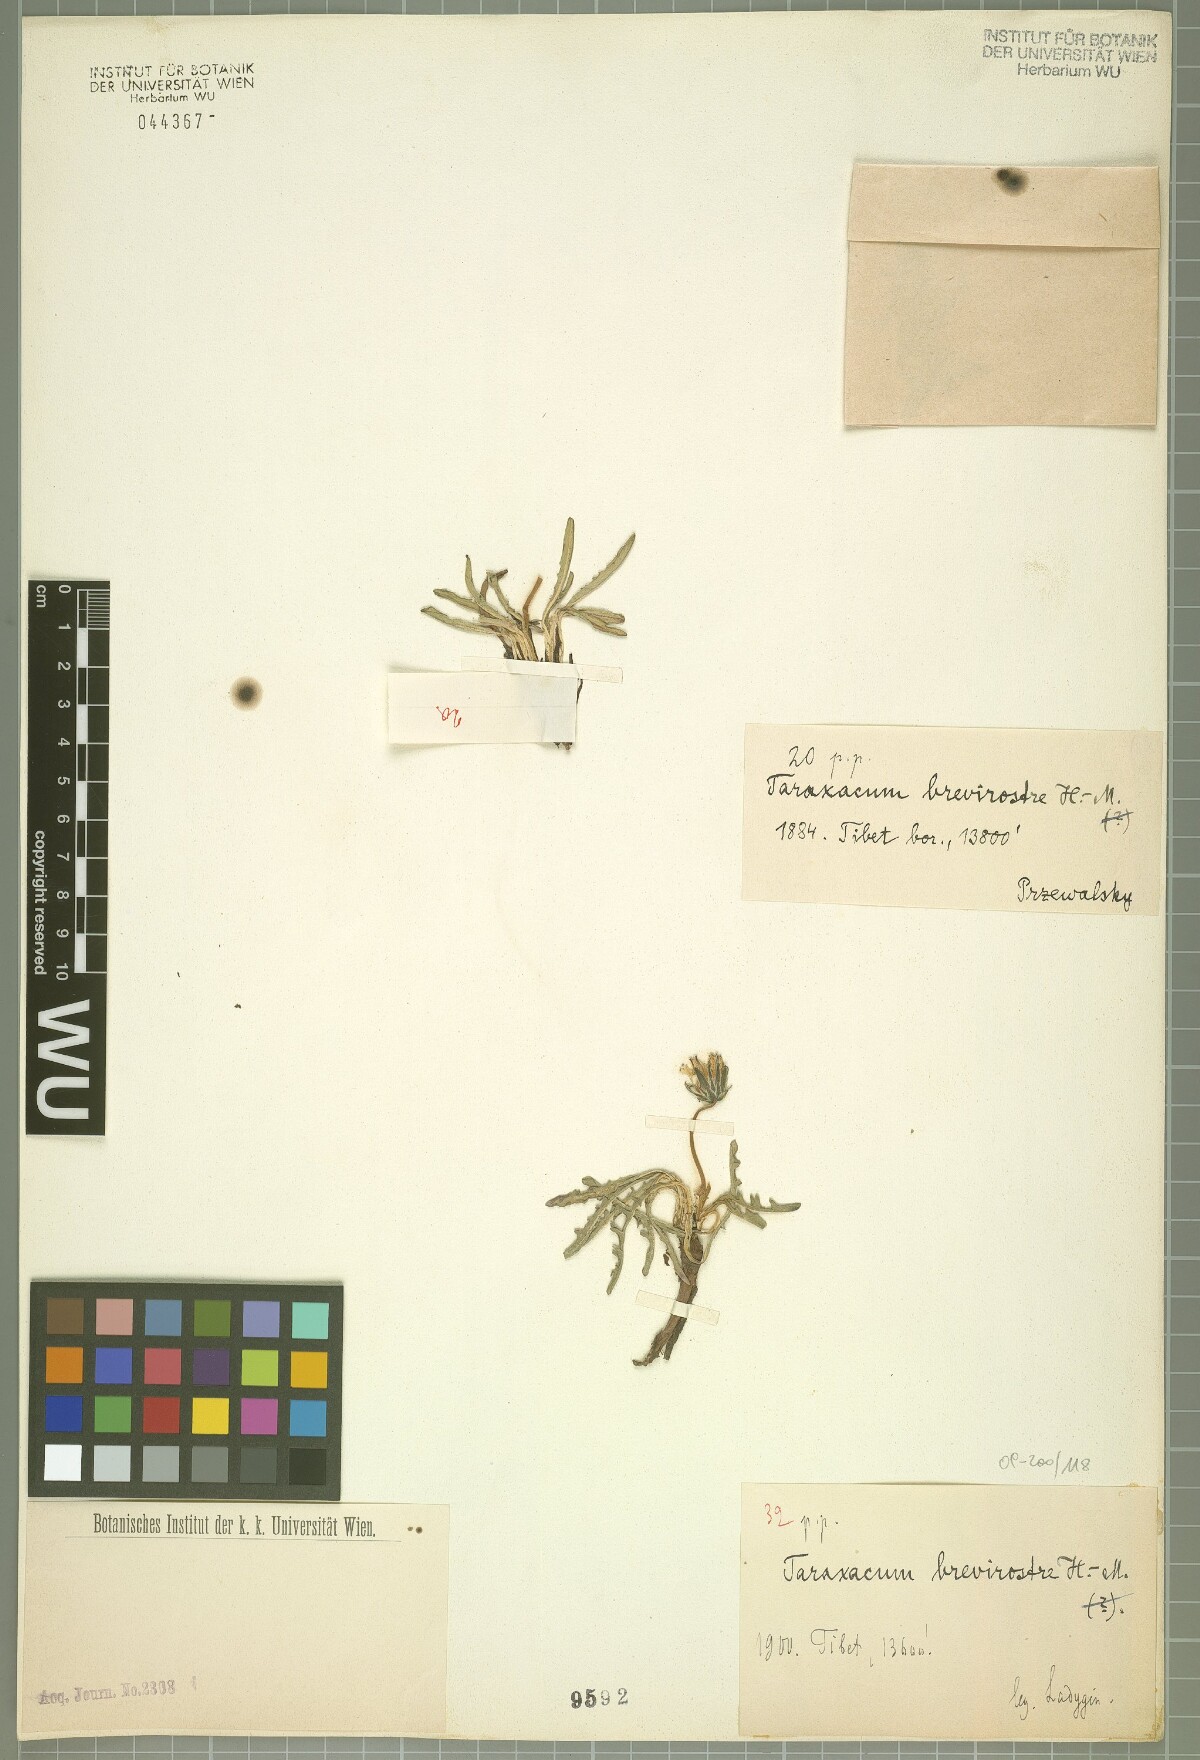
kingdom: Plantae
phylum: Tracheophyta
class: Magnoliopsida
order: Asterales
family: Asteraceae
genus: Taraxacum
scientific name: Taraxacum brevirostre
